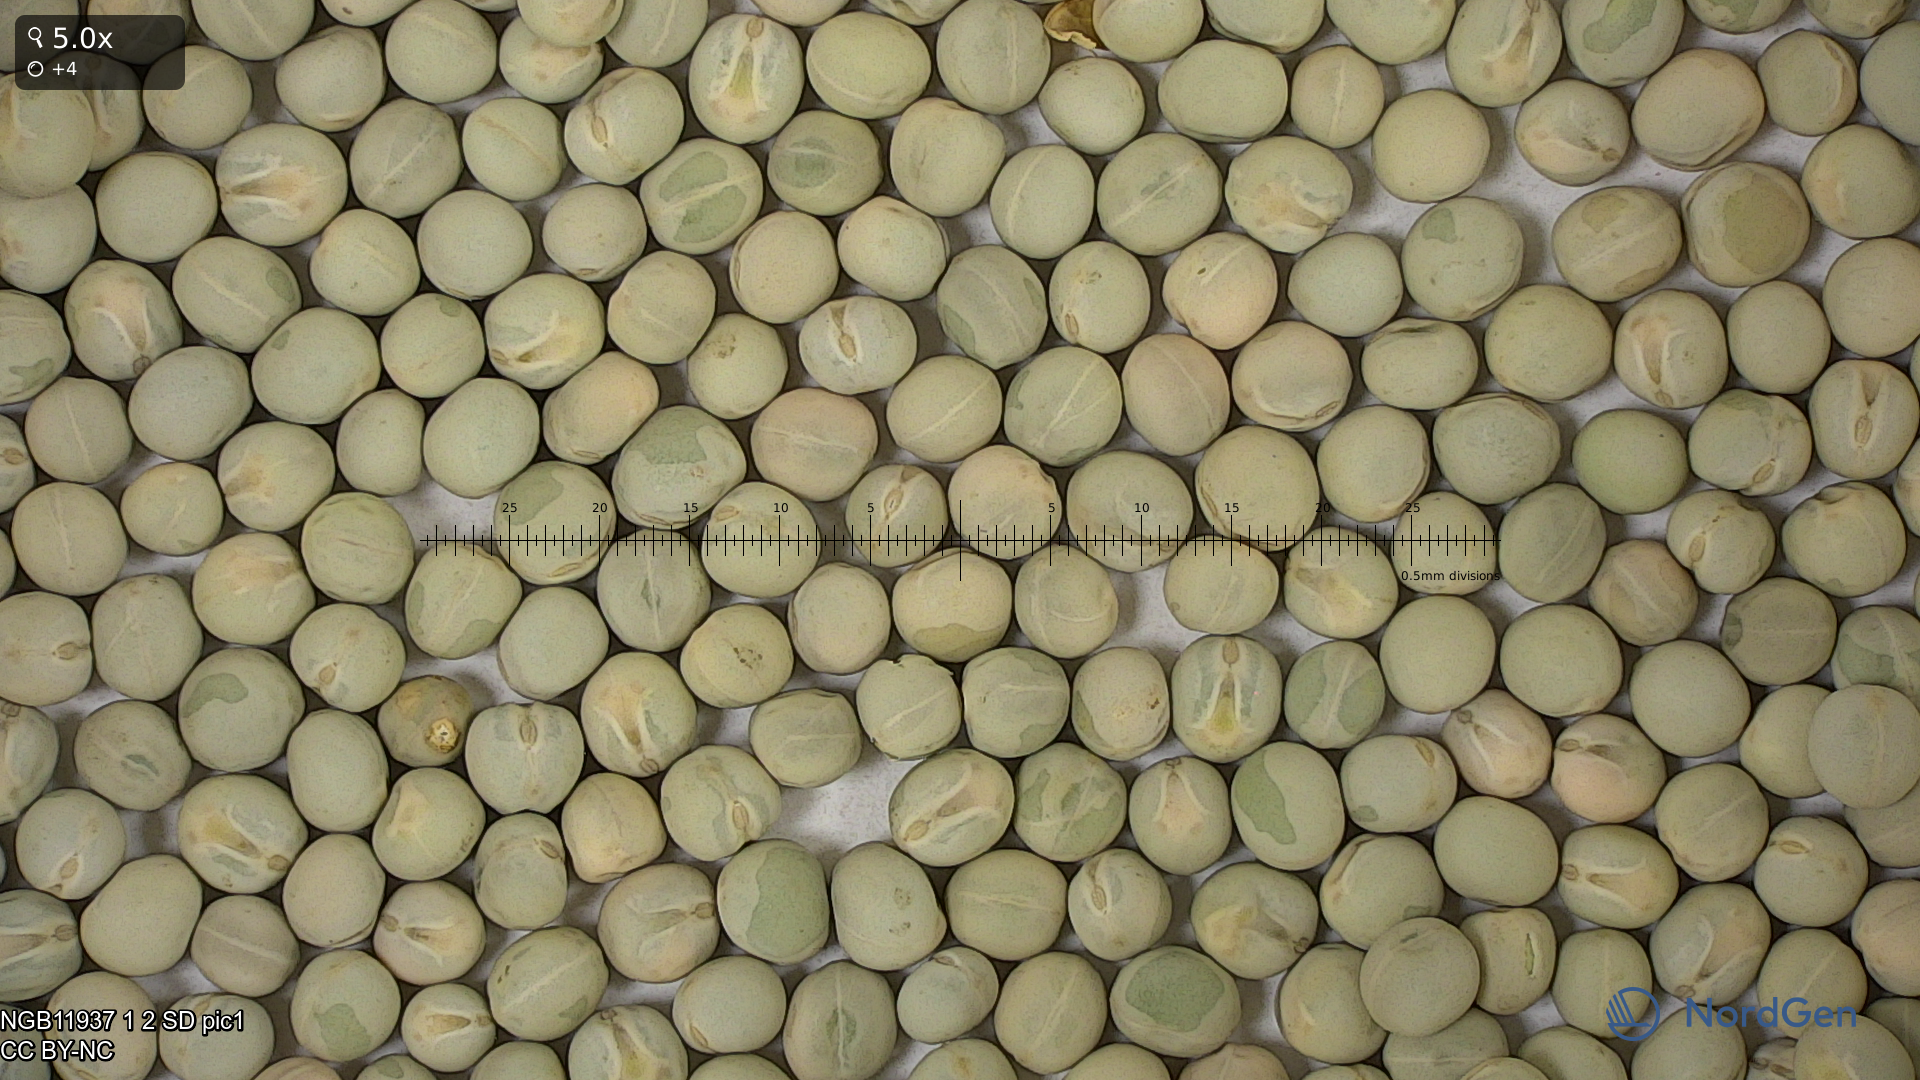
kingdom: Plantae
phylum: Tracheophyta
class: Magnoliopsida
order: Fabales
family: Fabaceae
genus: Lathyrus
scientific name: Lathyrus oleraceus
